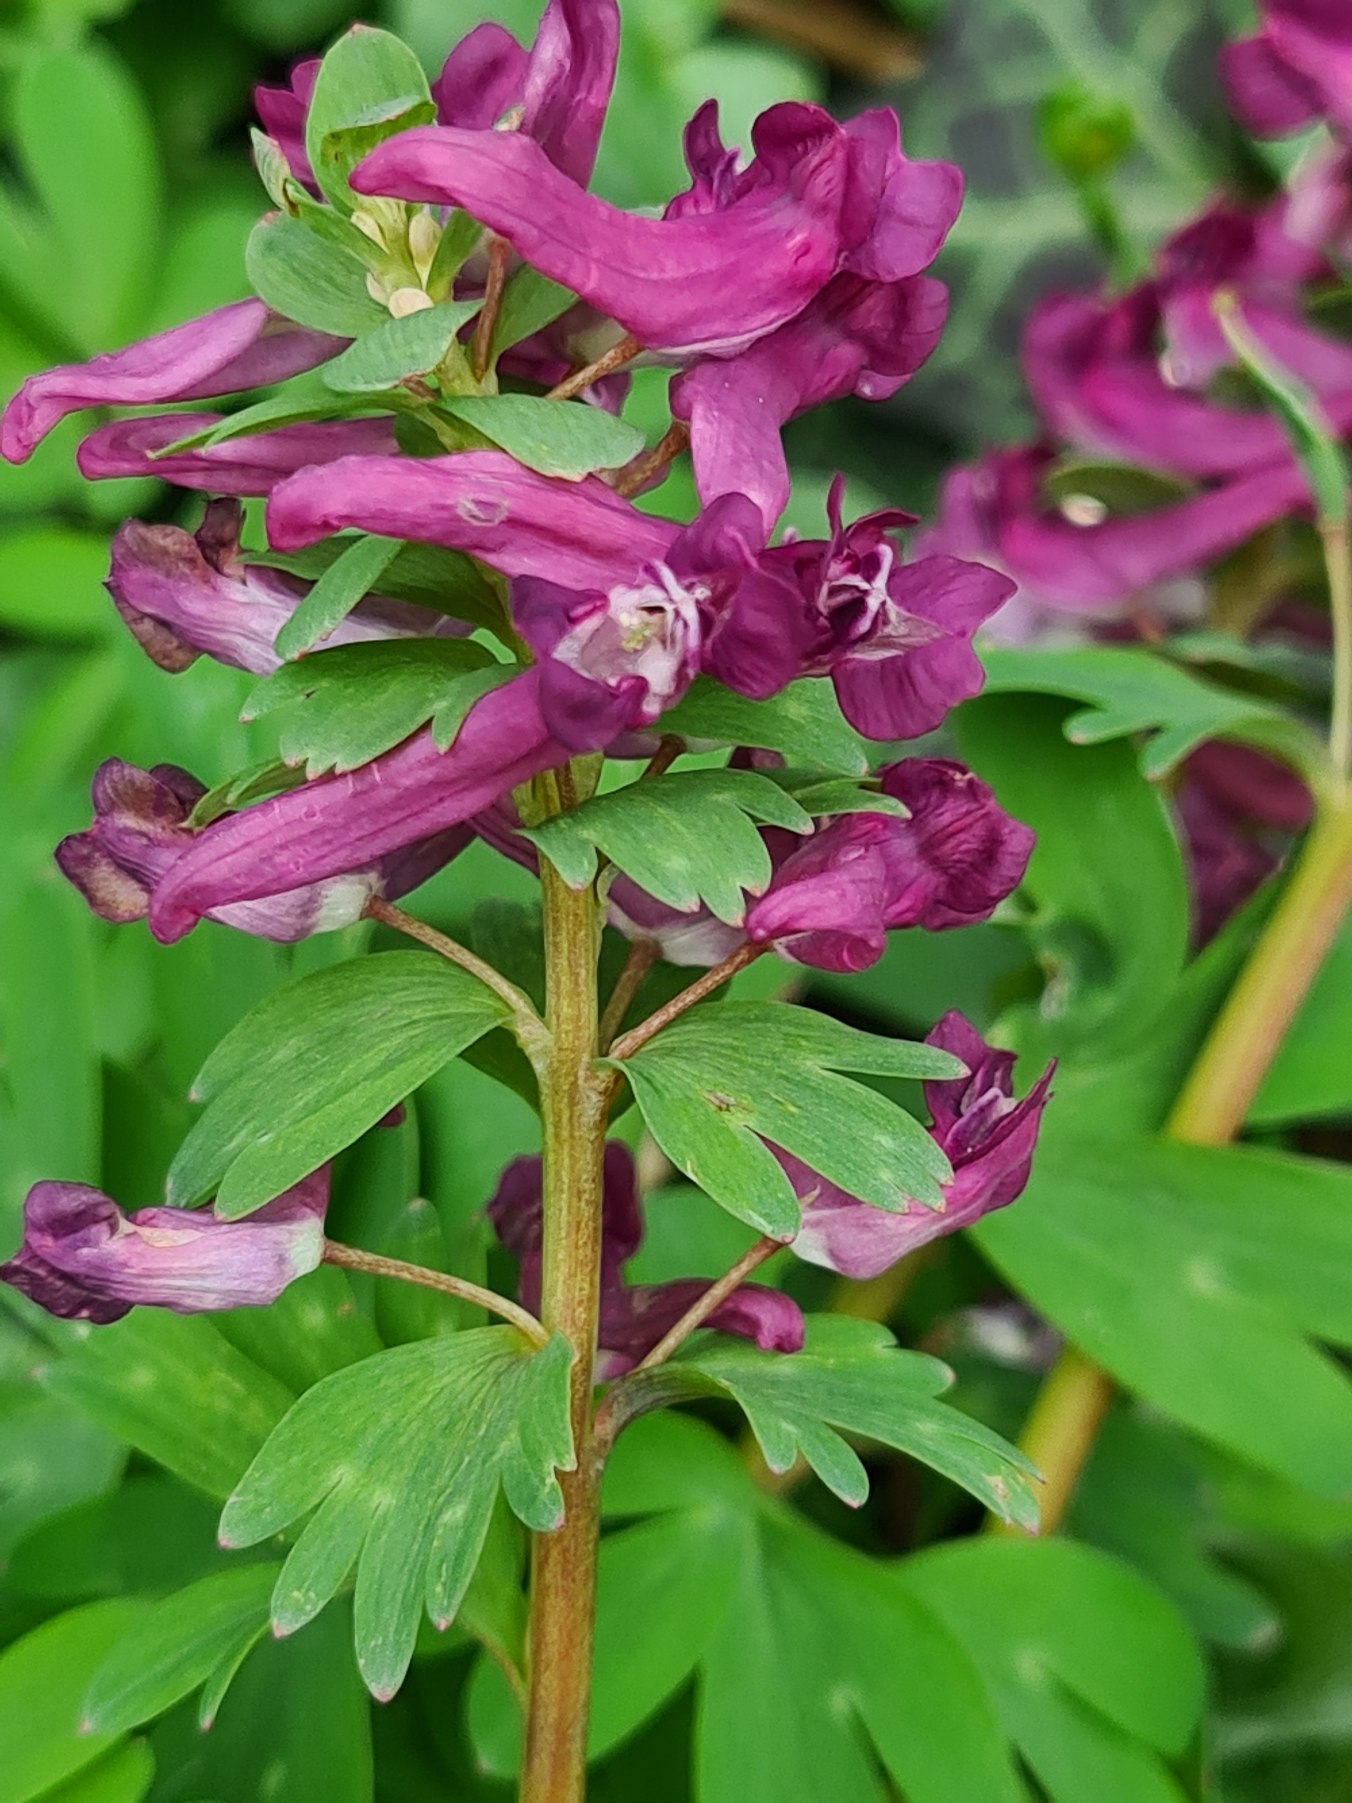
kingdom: Plantae
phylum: Tracheophyta
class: Magnoliopsida
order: Ranunculales
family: Papaveraceae
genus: Corydalis
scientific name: Corydalis solida
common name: Langstilket lærkespore
